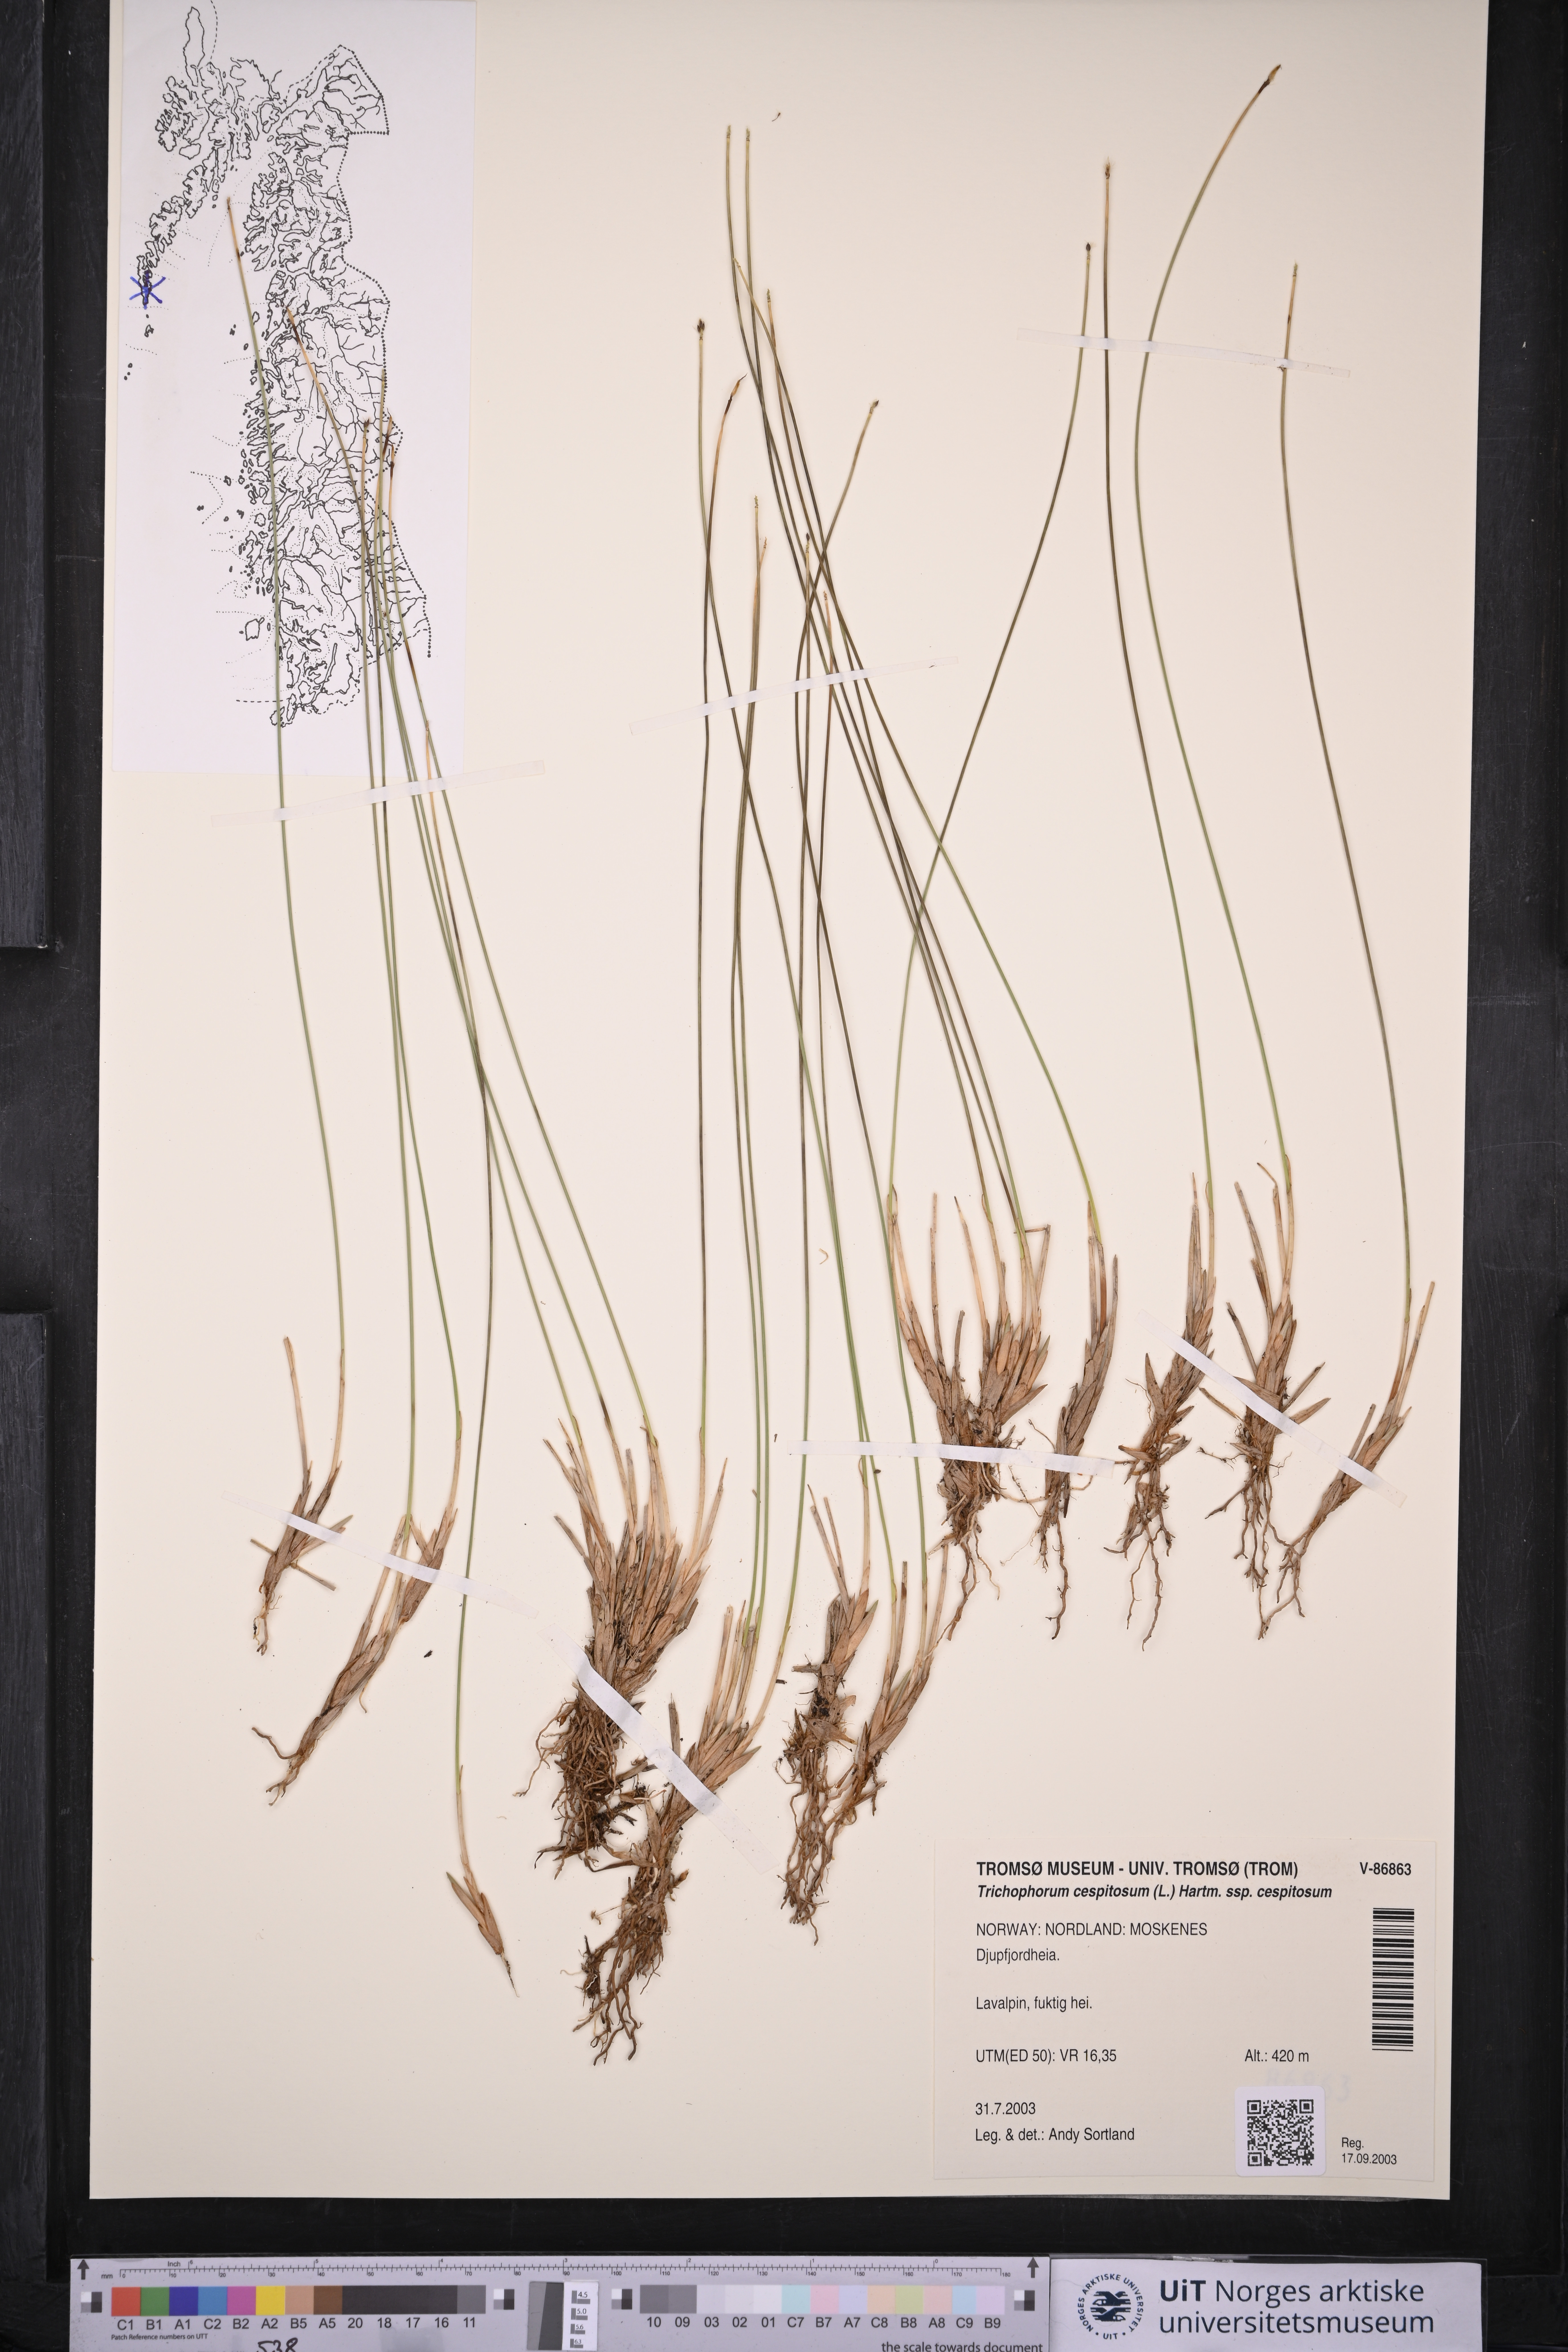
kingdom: Plantae
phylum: Tracheophyta
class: Liliopsida
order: Poales
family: Cyperaceae
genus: Trichophorum
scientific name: Trichophorum cespitosum
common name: Cespitose bulrush
